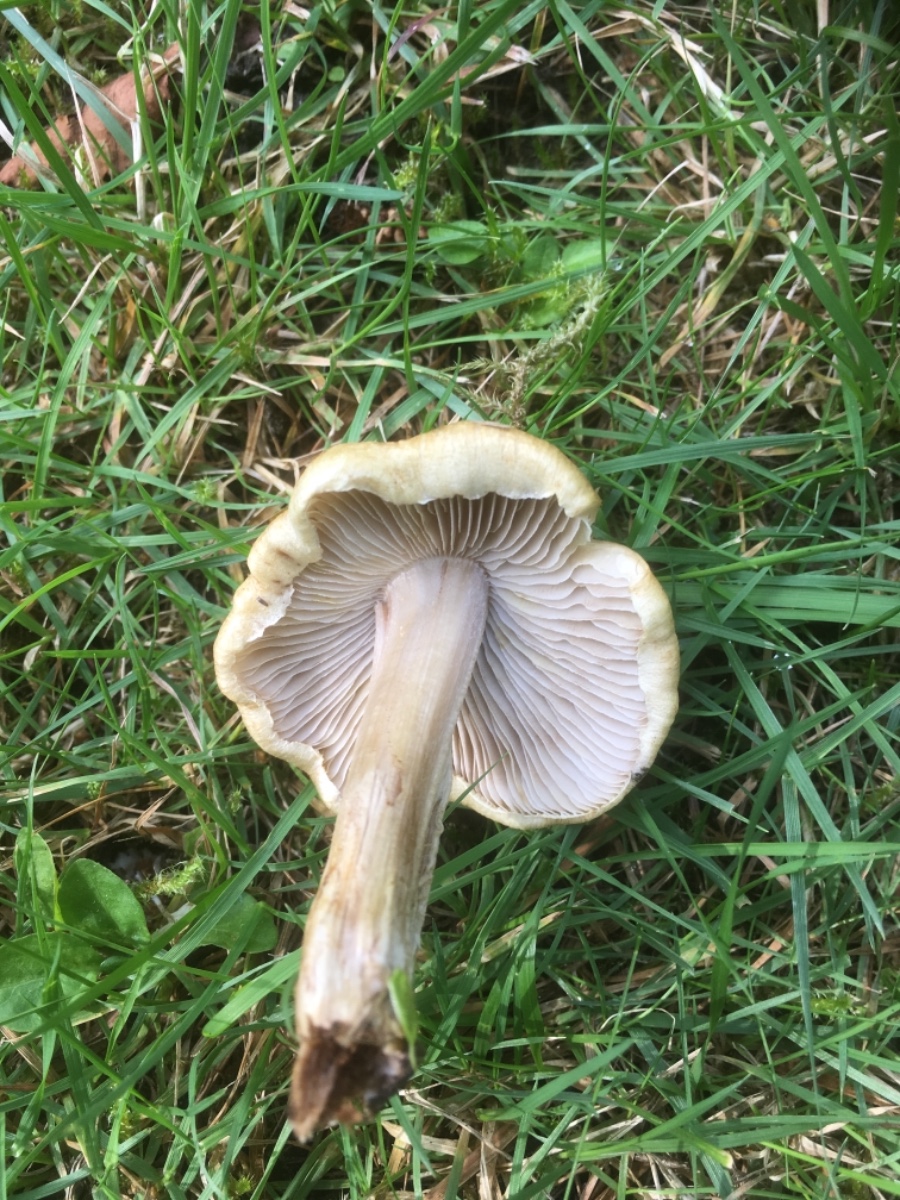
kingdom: Fungi
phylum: Basidiomycota
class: Agaricomycetes
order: Agaricales
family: Inocybaceae
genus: Inocybe
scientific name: Inocybe
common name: trævlhat
